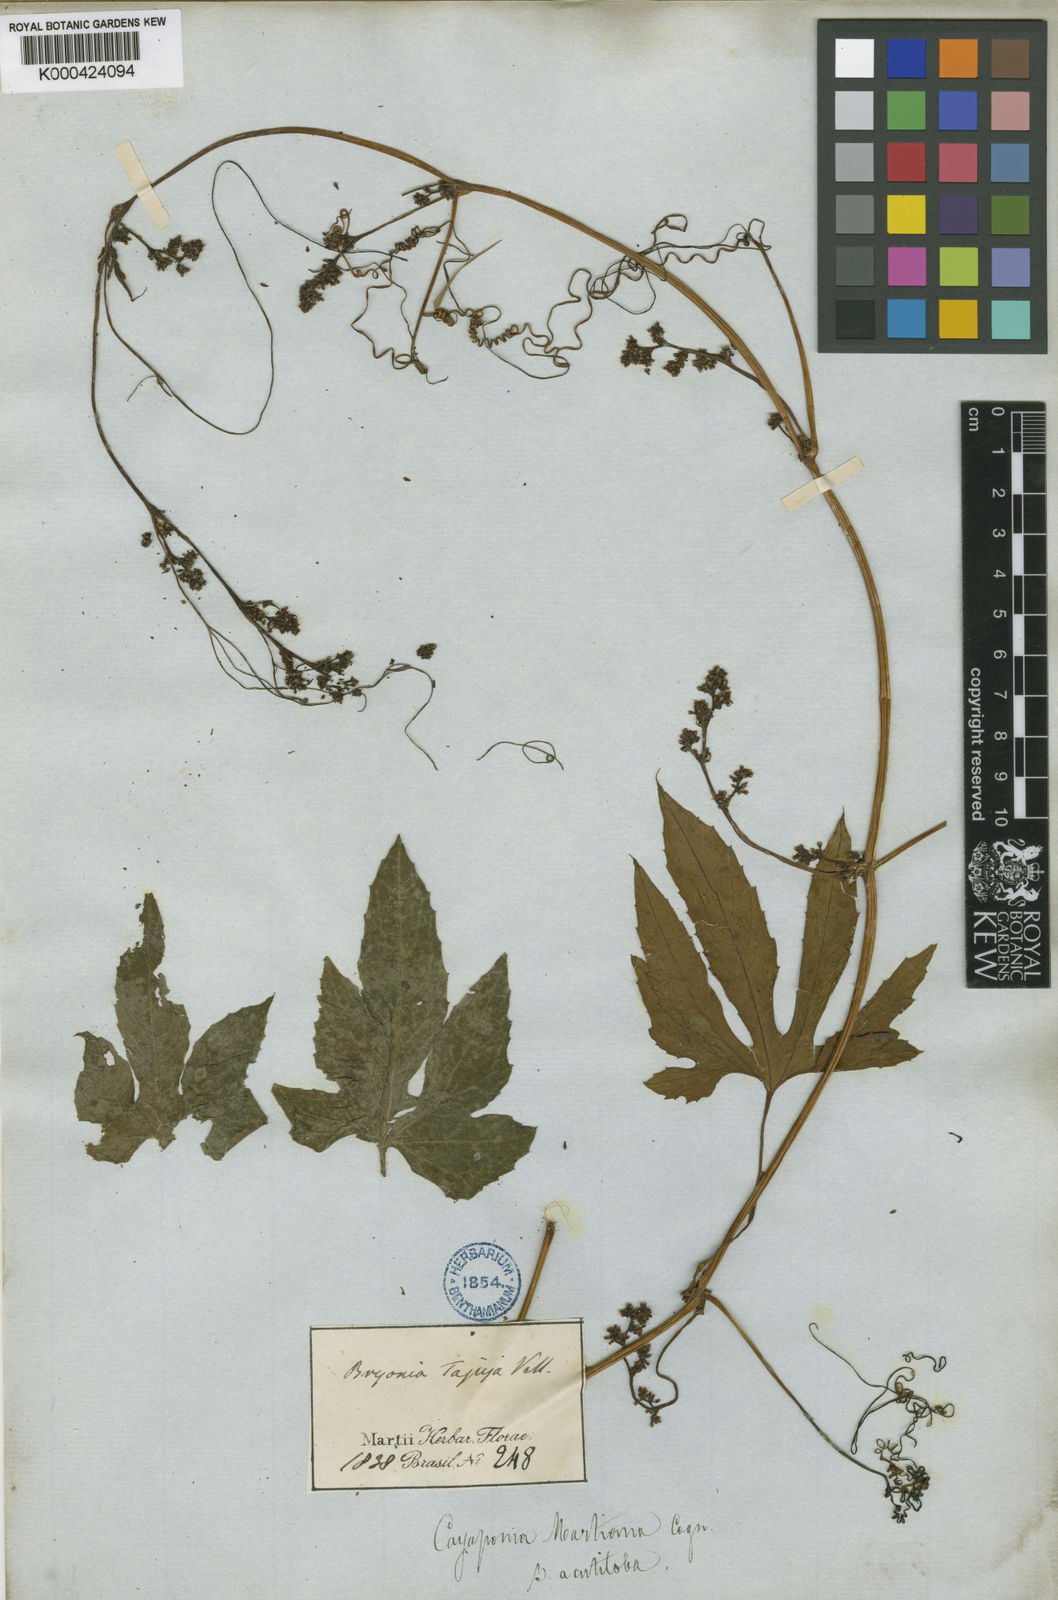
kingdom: Plantae
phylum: Tracheophyta
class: Magnoliopsida
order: Cucurbitales
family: Cucurbitaceae
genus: Cayaponia
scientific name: Cayaponia martiana
